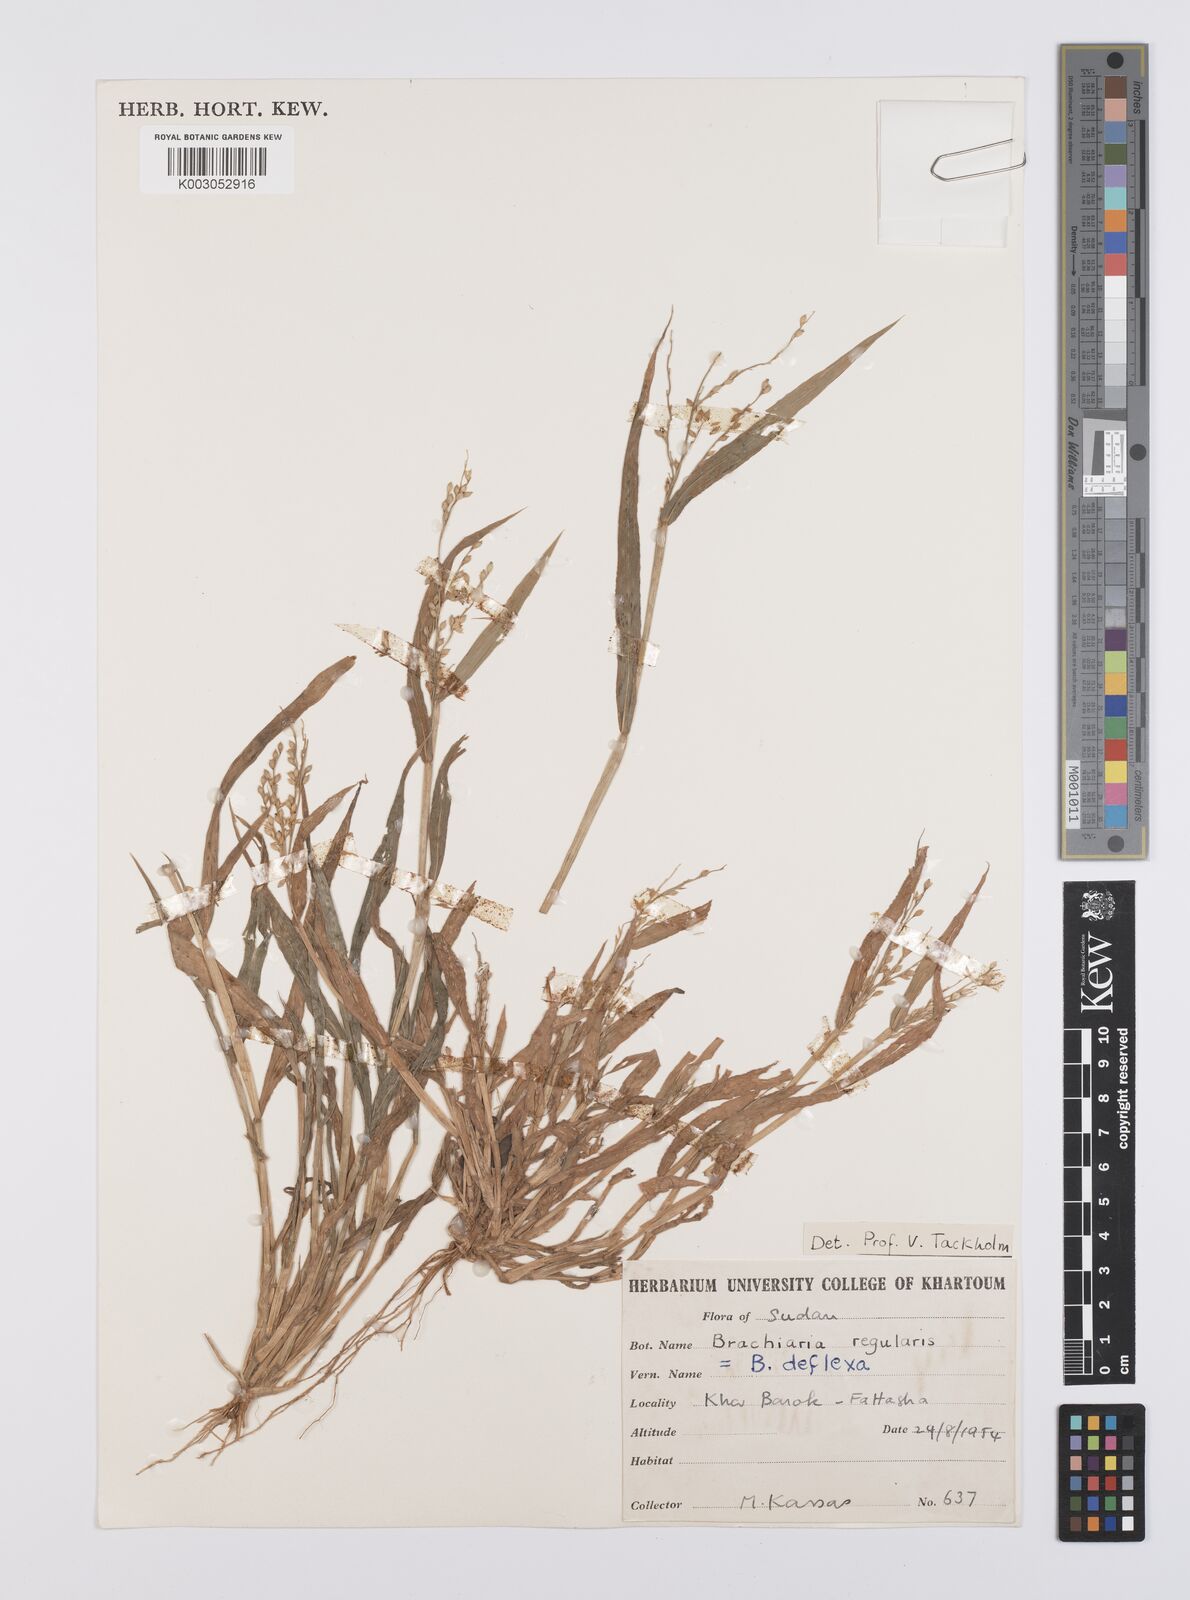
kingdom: Plantae
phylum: Tracheophyta
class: Liliopsida
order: Poales
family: Poaceae
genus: Urochloa
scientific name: Urochloa ramosa
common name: Browntop millet
